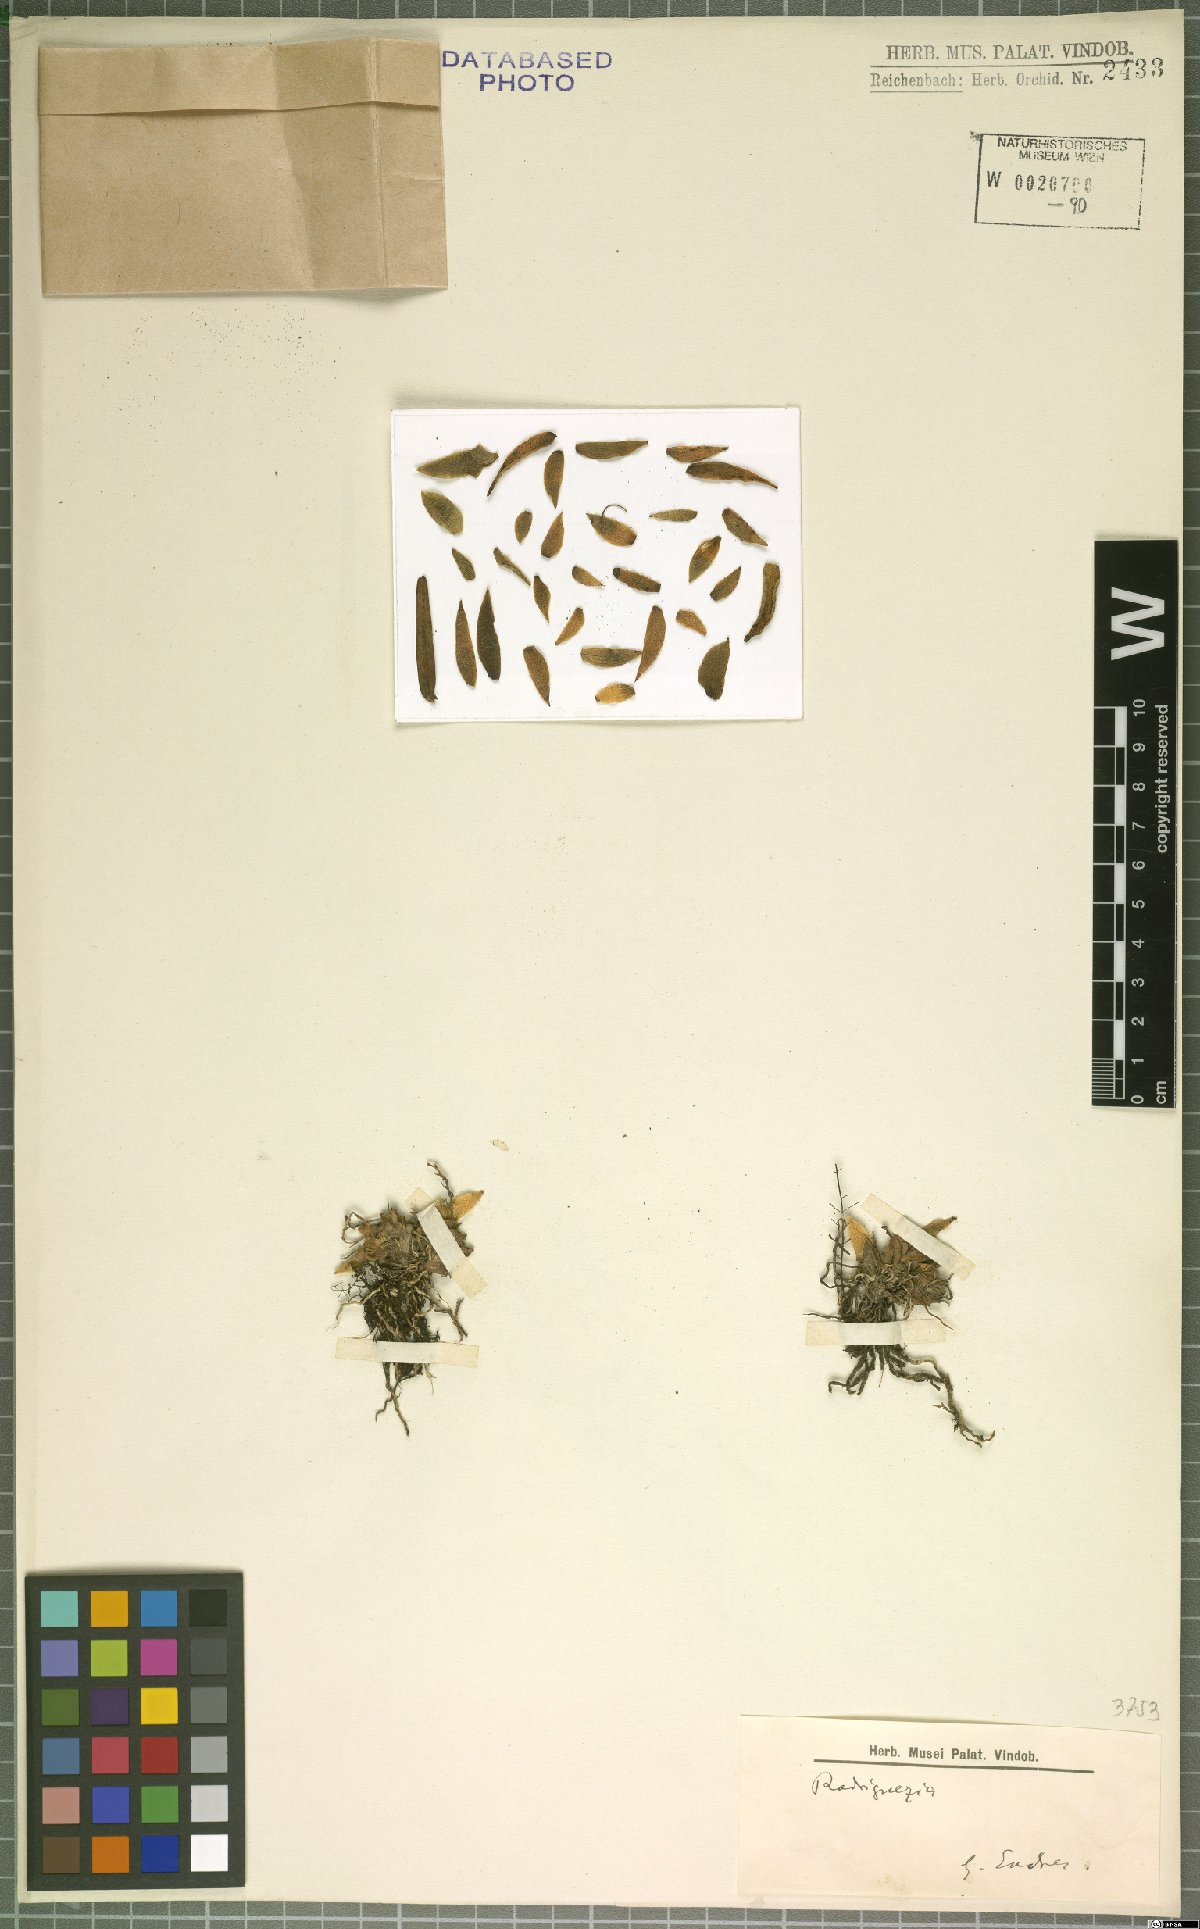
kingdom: Plantae
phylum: Tracheophyta
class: Liliopsida
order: Asparagales
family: Orchidaceae
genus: Rodriguezia
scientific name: Rodriguezia
